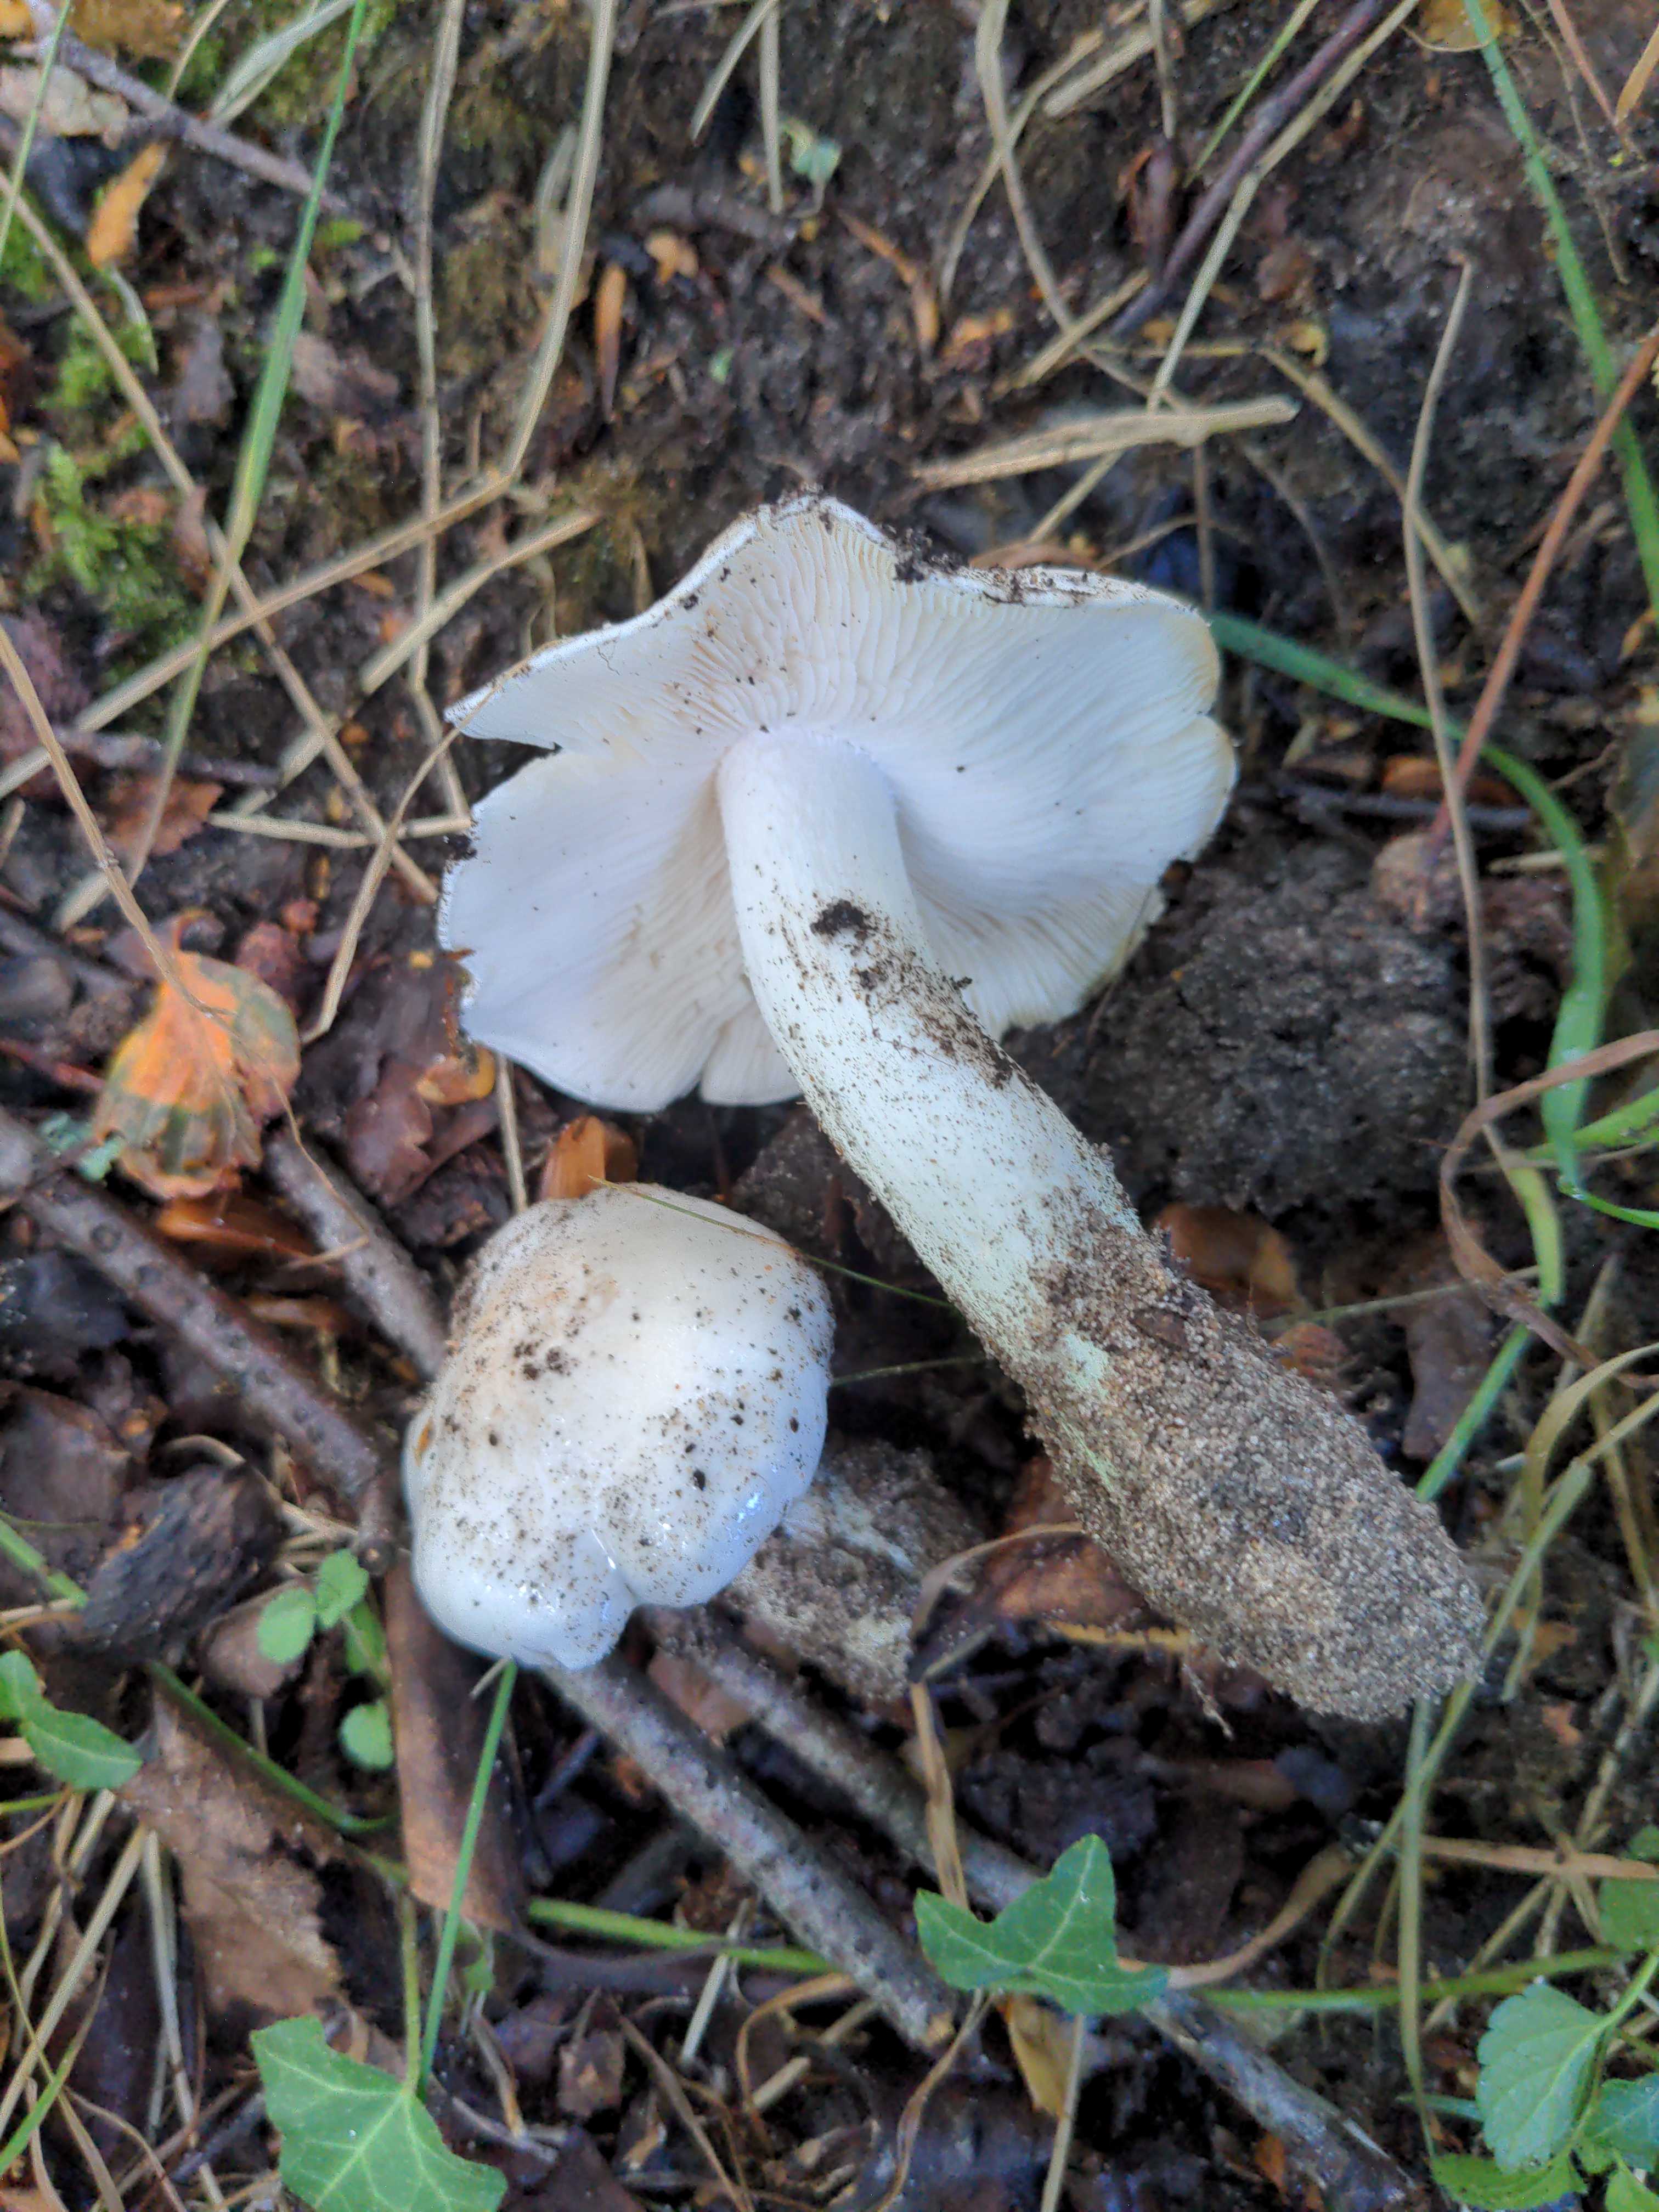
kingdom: Fungi
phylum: Basidiomycota
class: Agaricomycetes
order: Agaricales
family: Tricholomataceae
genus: Tricholoma
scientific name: Tricholoma columbetta
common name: silke-ridderhat
